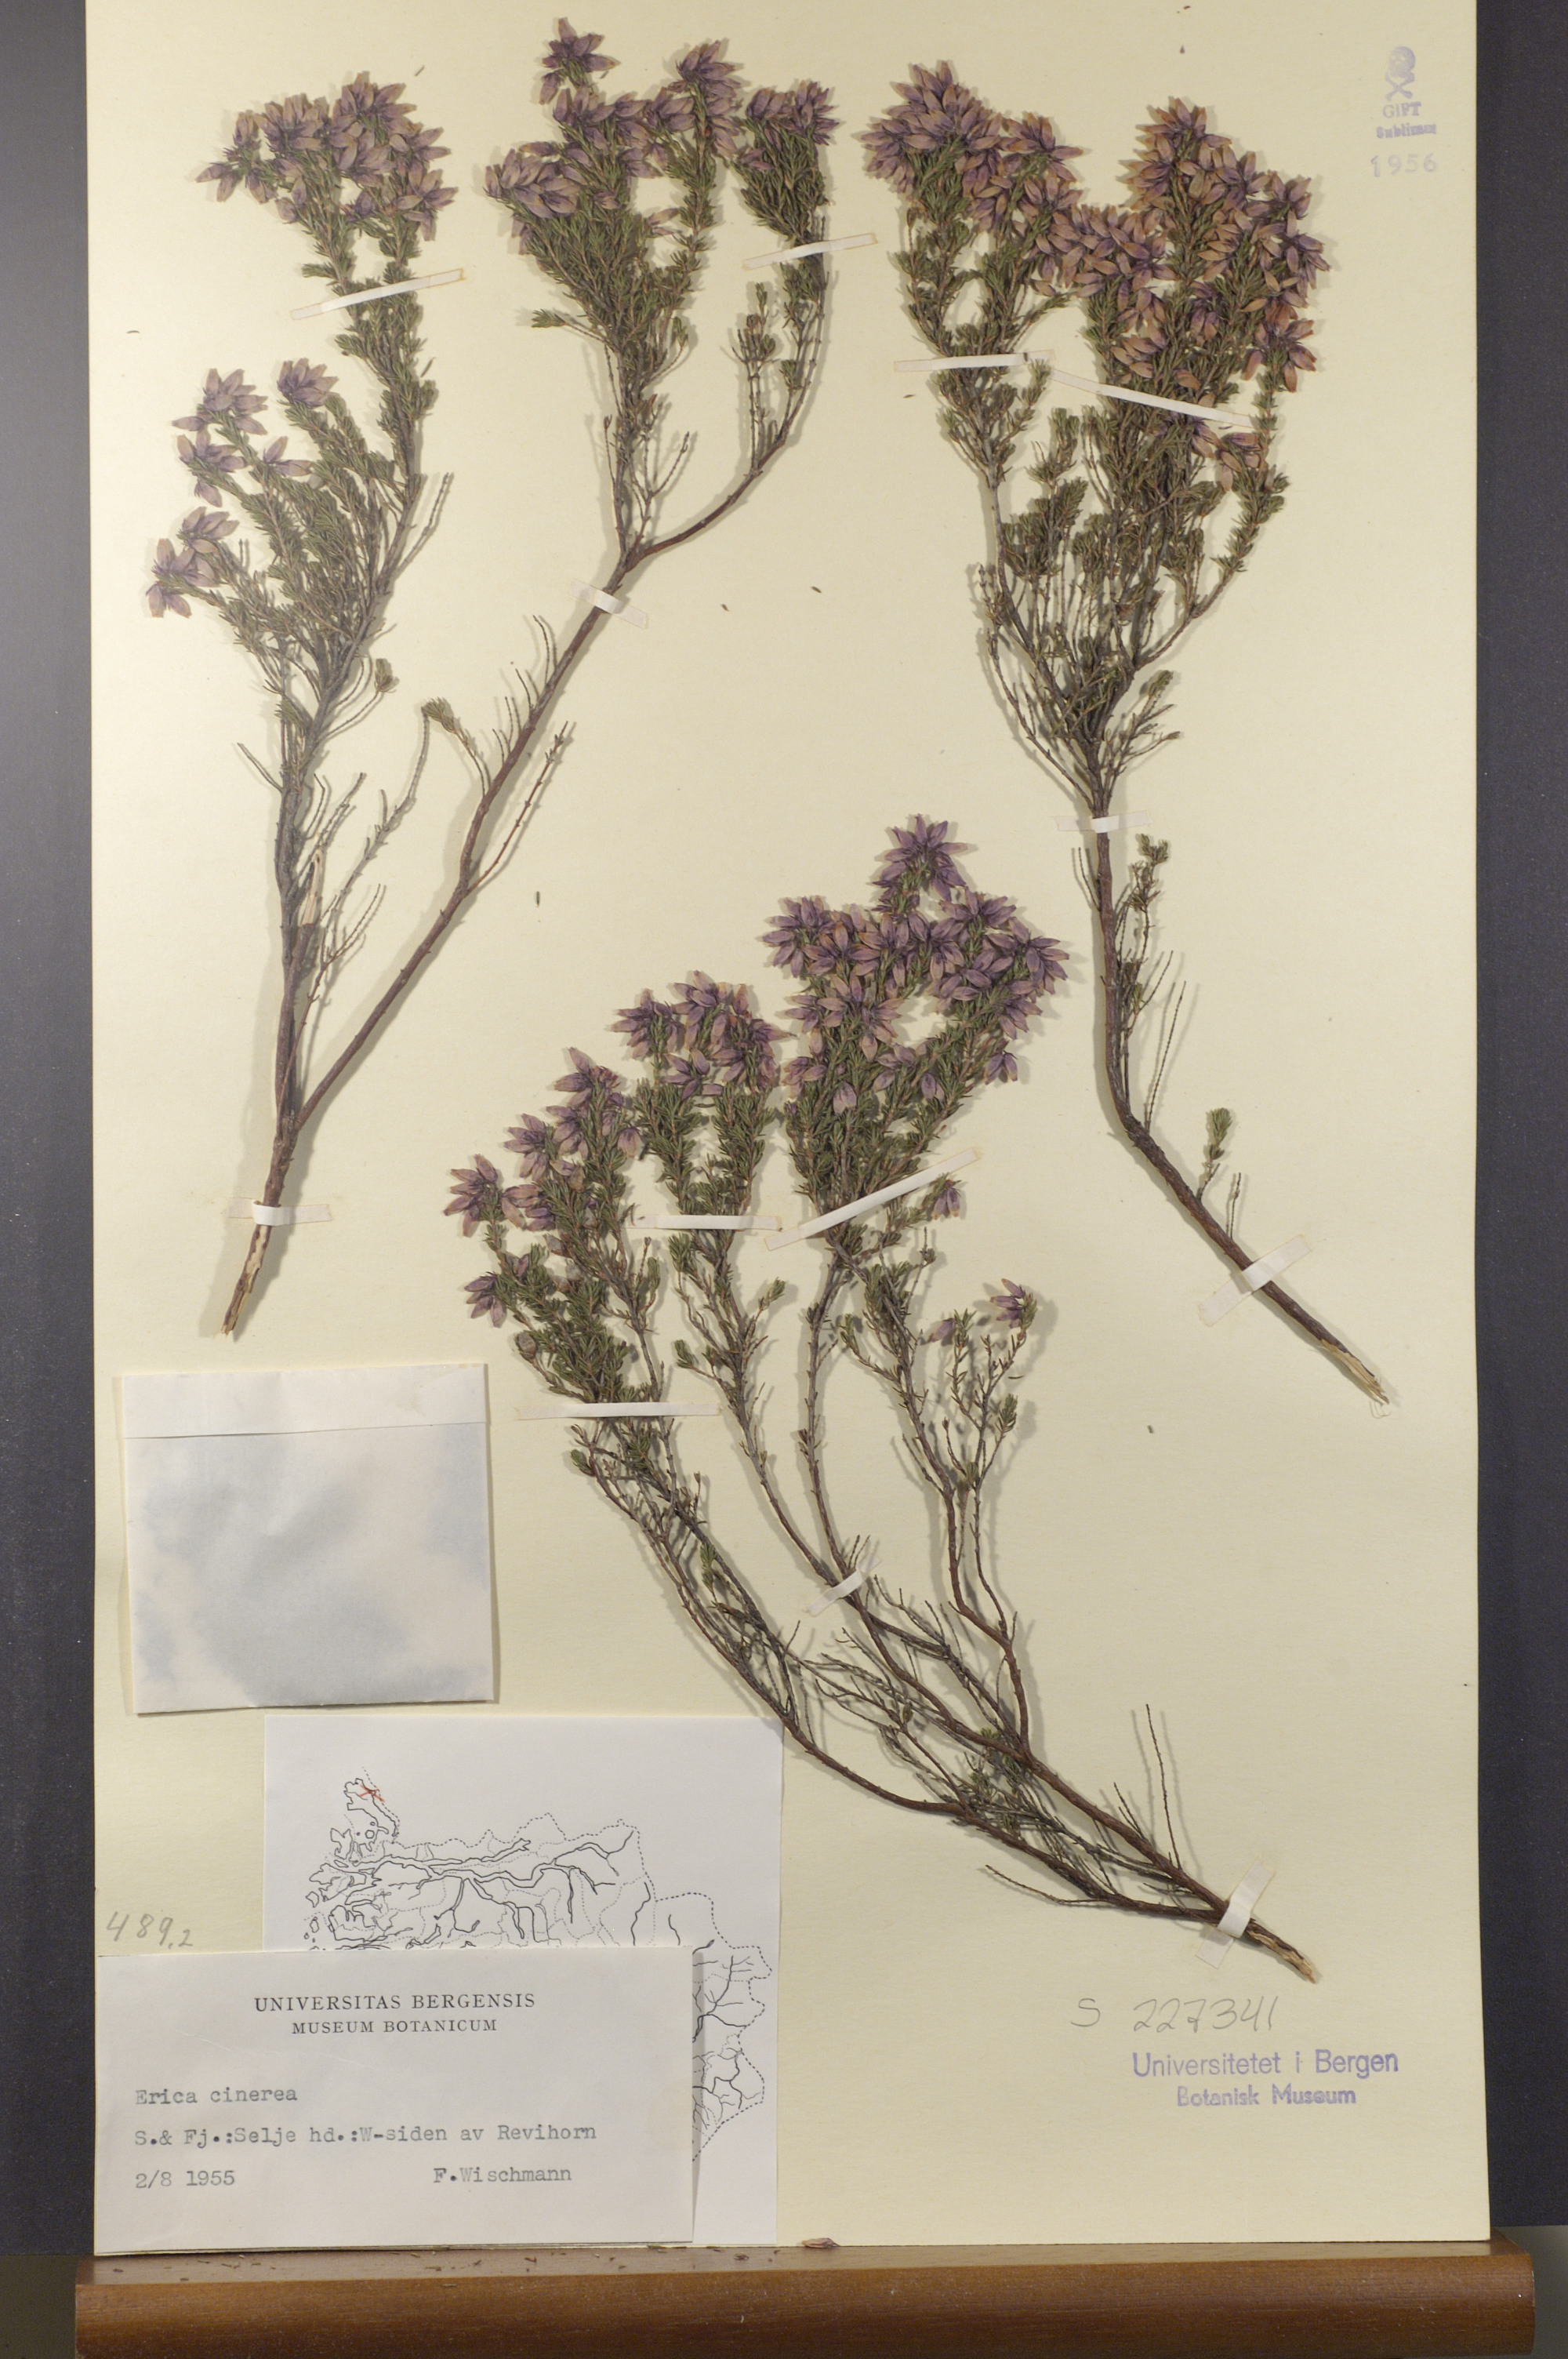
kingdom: Plantae
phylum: Tracheophyta
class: Magnoliopsida
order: Ericales
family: Ericaceae
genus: Erica
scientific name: Erica cinerea
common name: Bell heather
